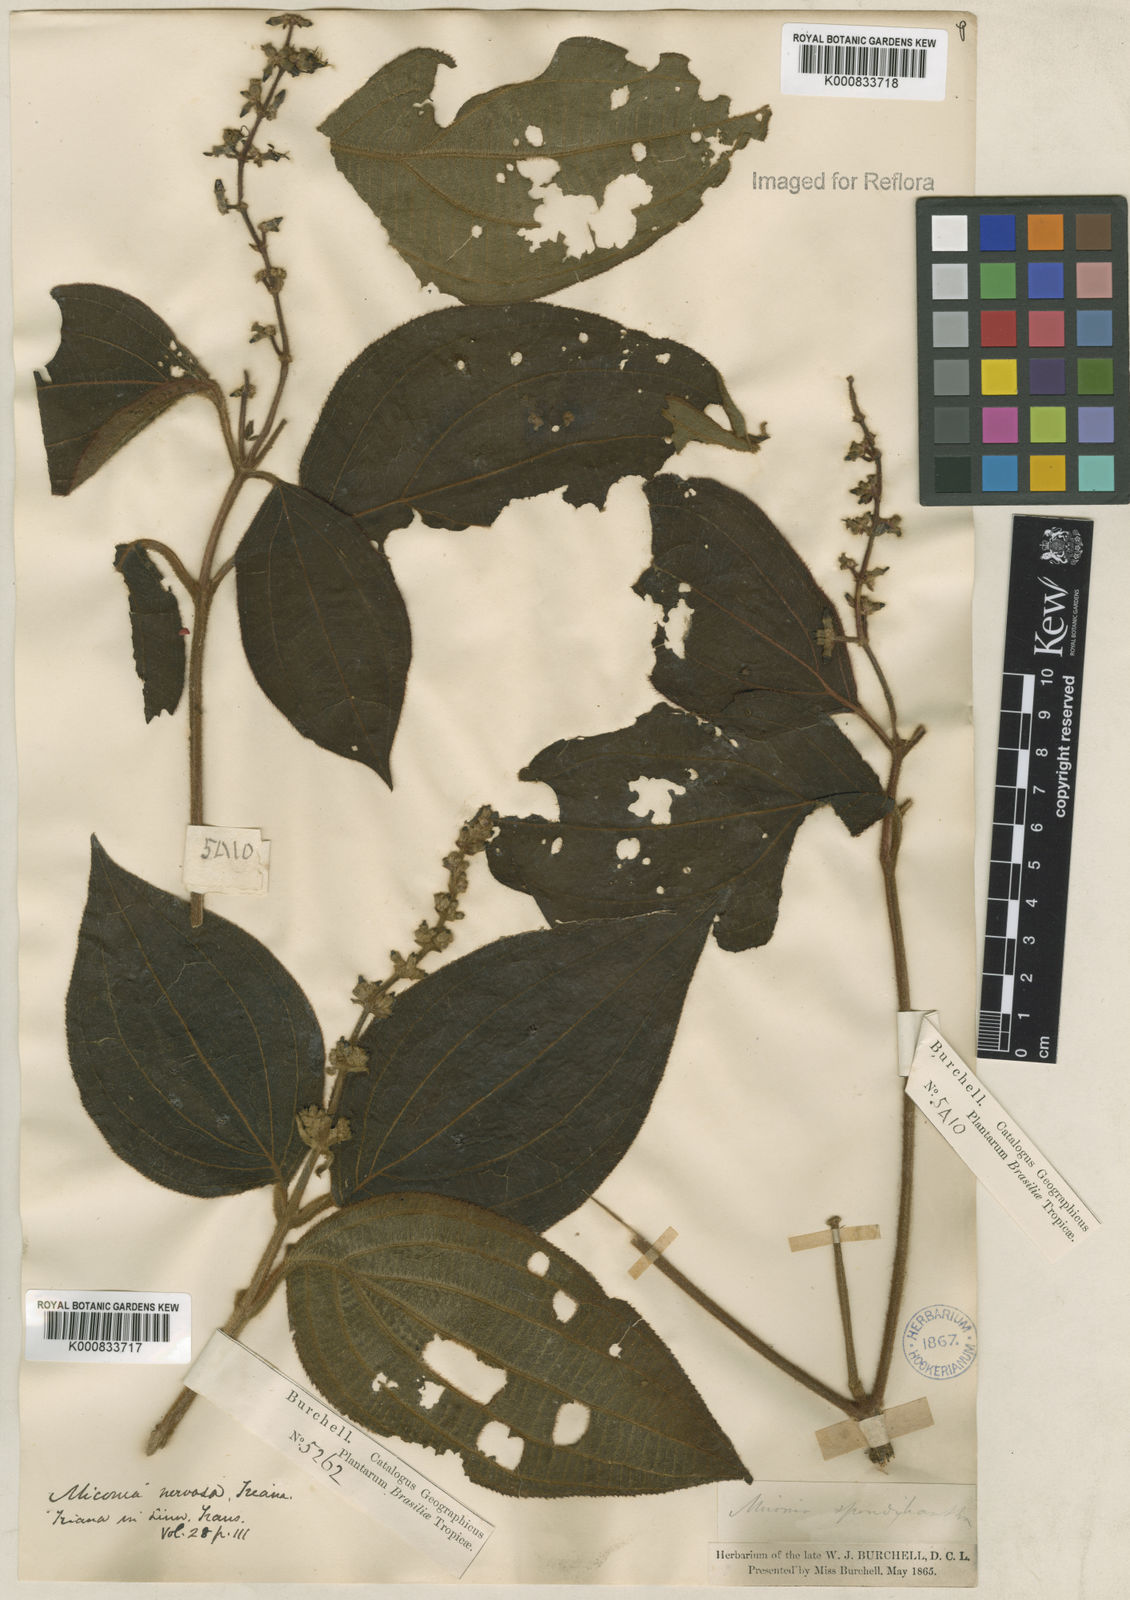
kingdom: Plantae
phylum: Tracheophyta
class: Magnoliopsida
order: Myrtales
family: Melastomataceae
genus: Miconia
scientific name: Miconia nervosa
